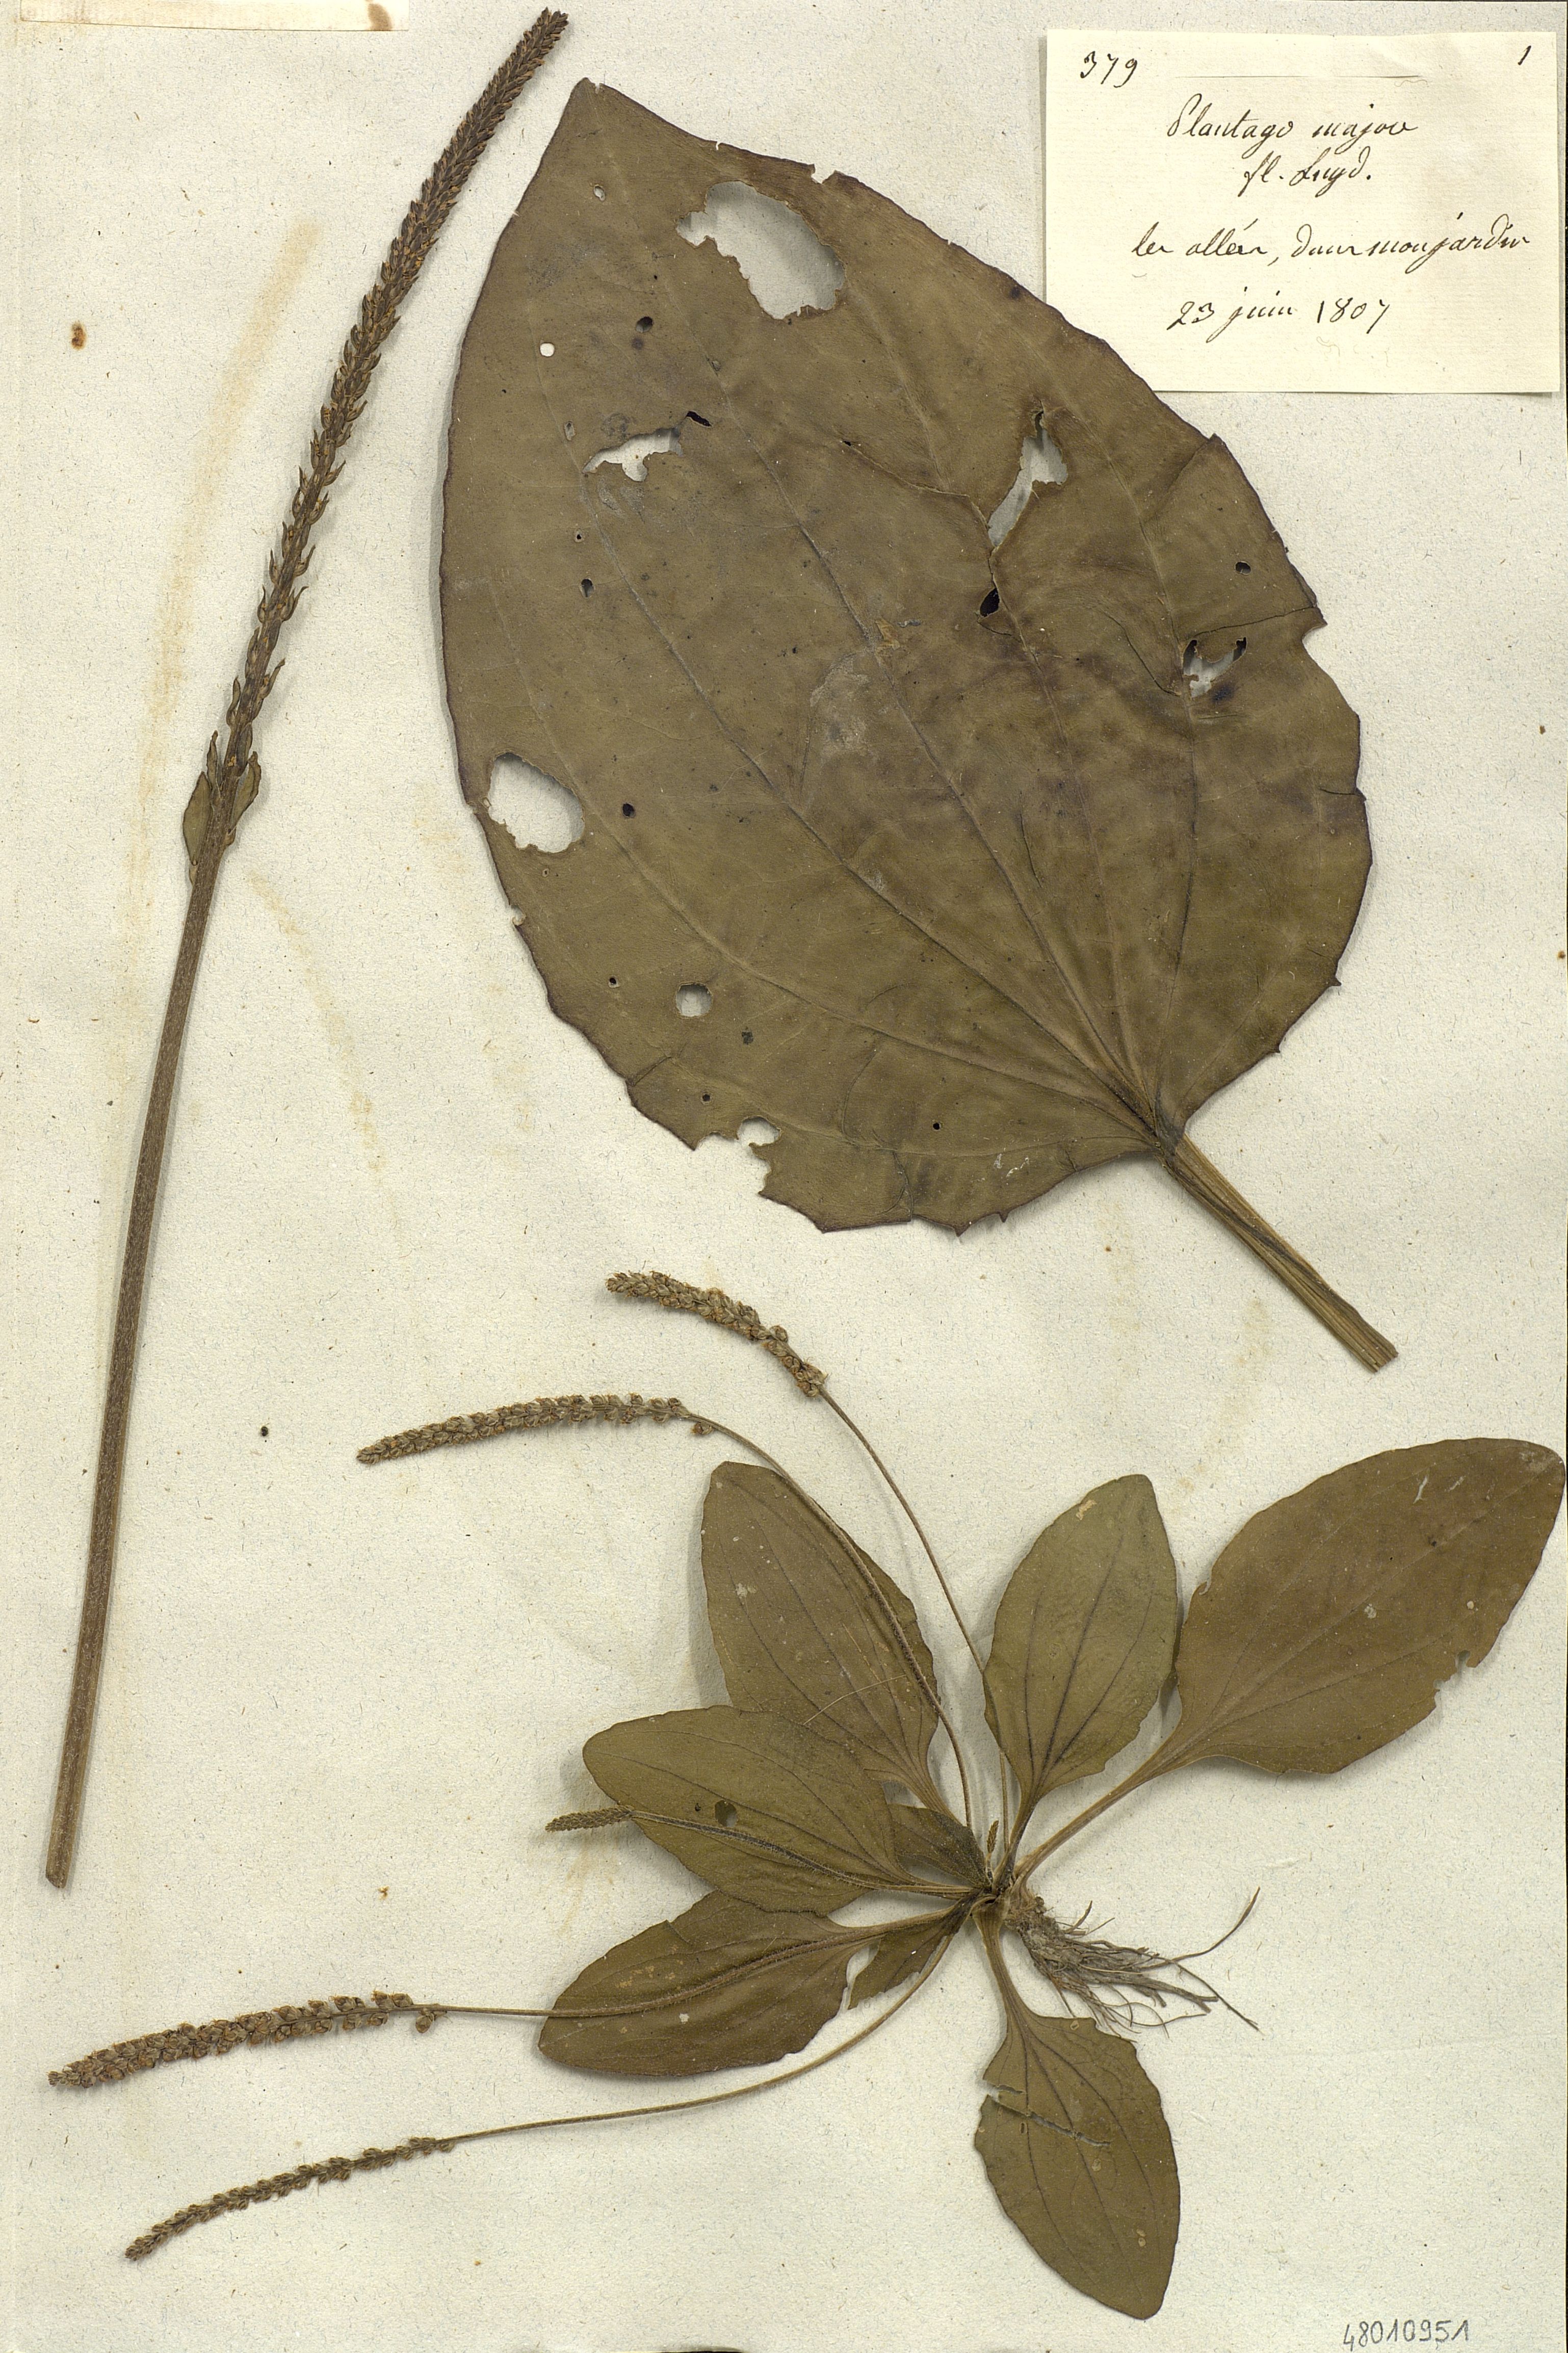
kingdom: Plantae
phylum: Tracheophyta
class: Magnoliopsida
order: Lamiales
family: Plantaginaceae
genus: Plantago
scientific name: Plantago major
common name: Common plantain
